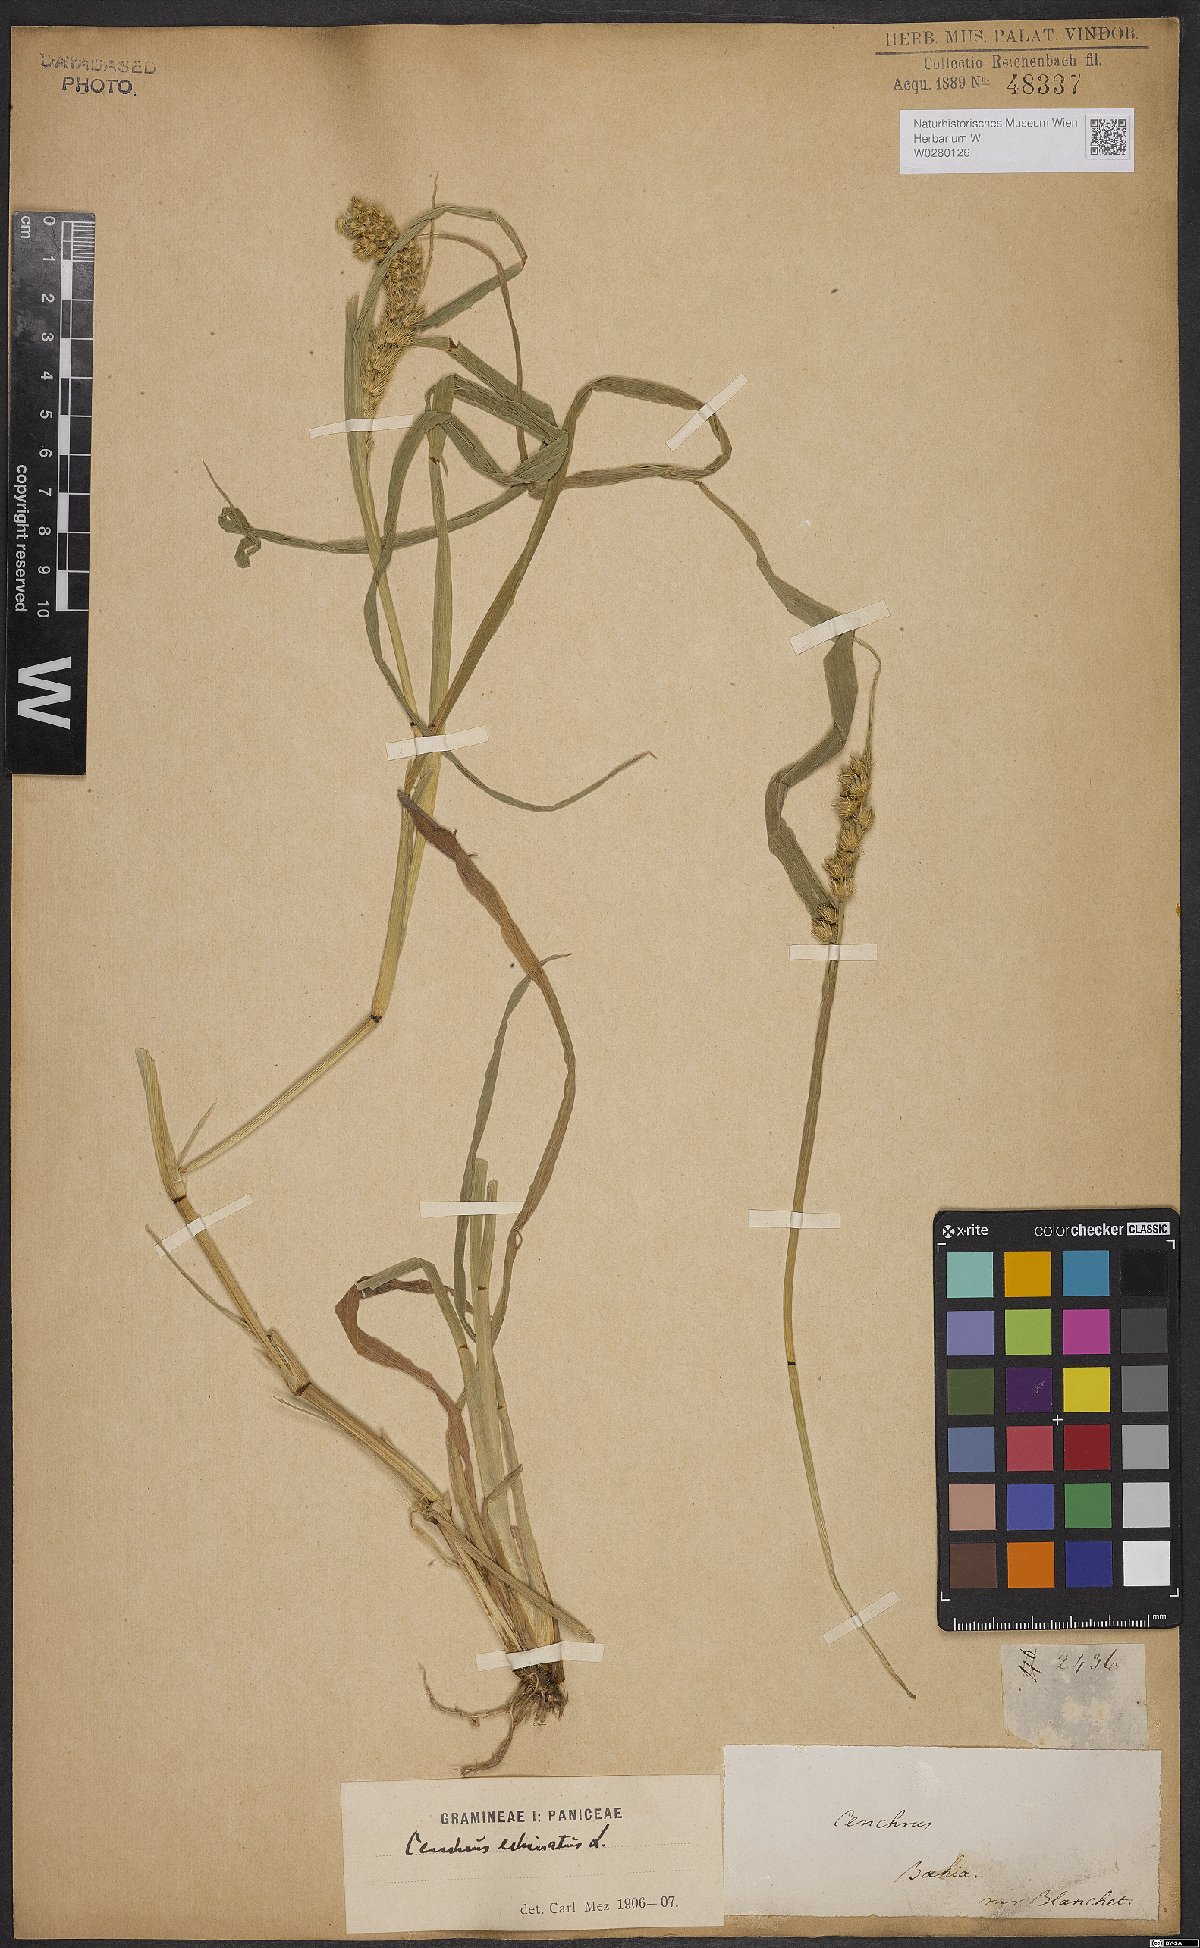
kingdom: Plantae
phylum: Tracheophyta
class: Liliopsida
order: Poales
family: Poaceae
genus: Cenchrus
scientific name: Cenchrus echinatus
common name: Southern sandbur
